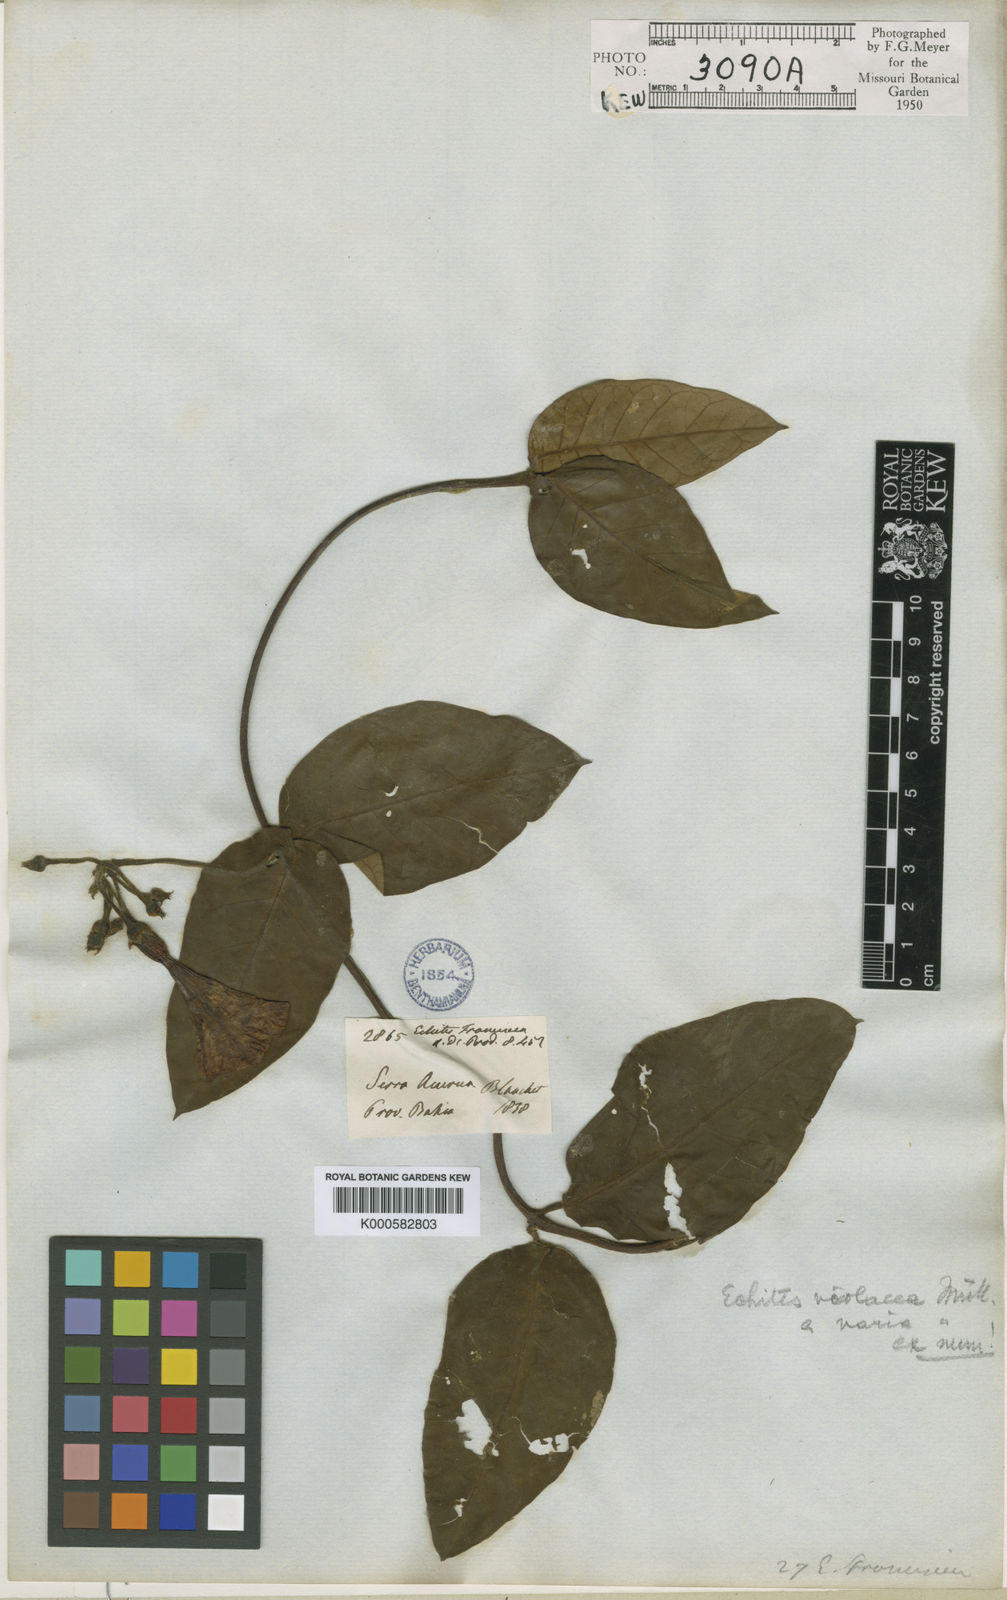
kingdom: Plantae
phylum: Tracheophyta
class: Magnoliopsida
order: Gentianales
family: Apocynaceae
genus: Temnadenia
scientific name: Temnadenia violacea
